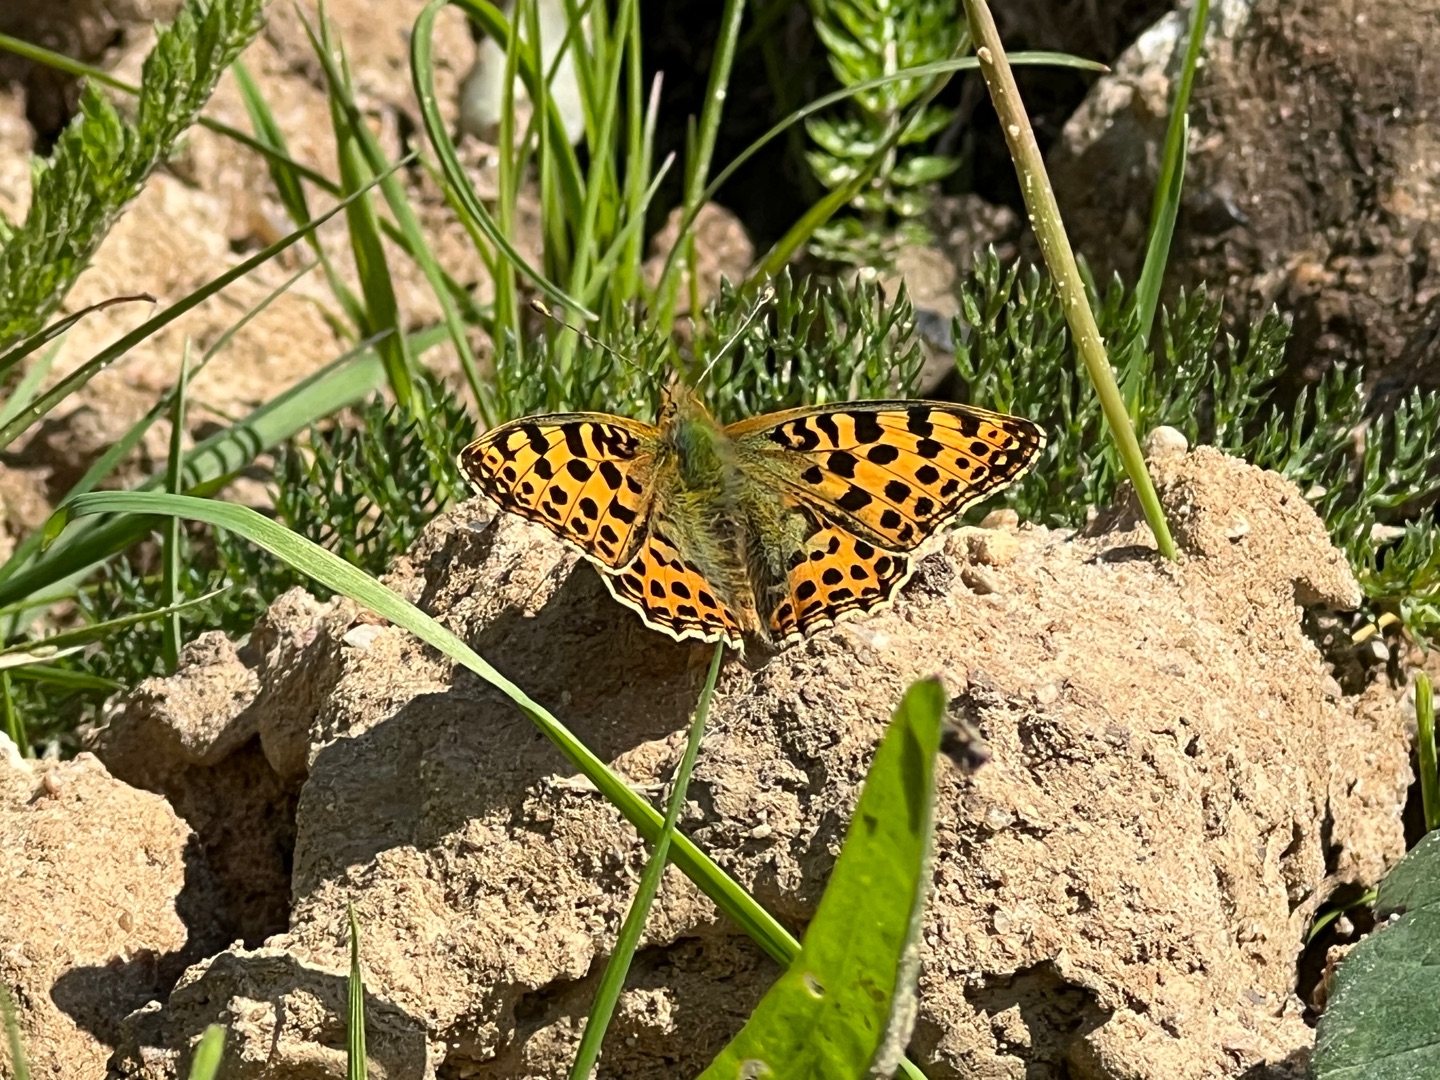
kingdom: Animalia
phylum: Arthropoda
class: Insecta
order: Lepidoptera
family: Nymphalidae
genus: Issoria
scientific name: Issoria lathonia
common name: Storplettet perlemorsommerfugl
